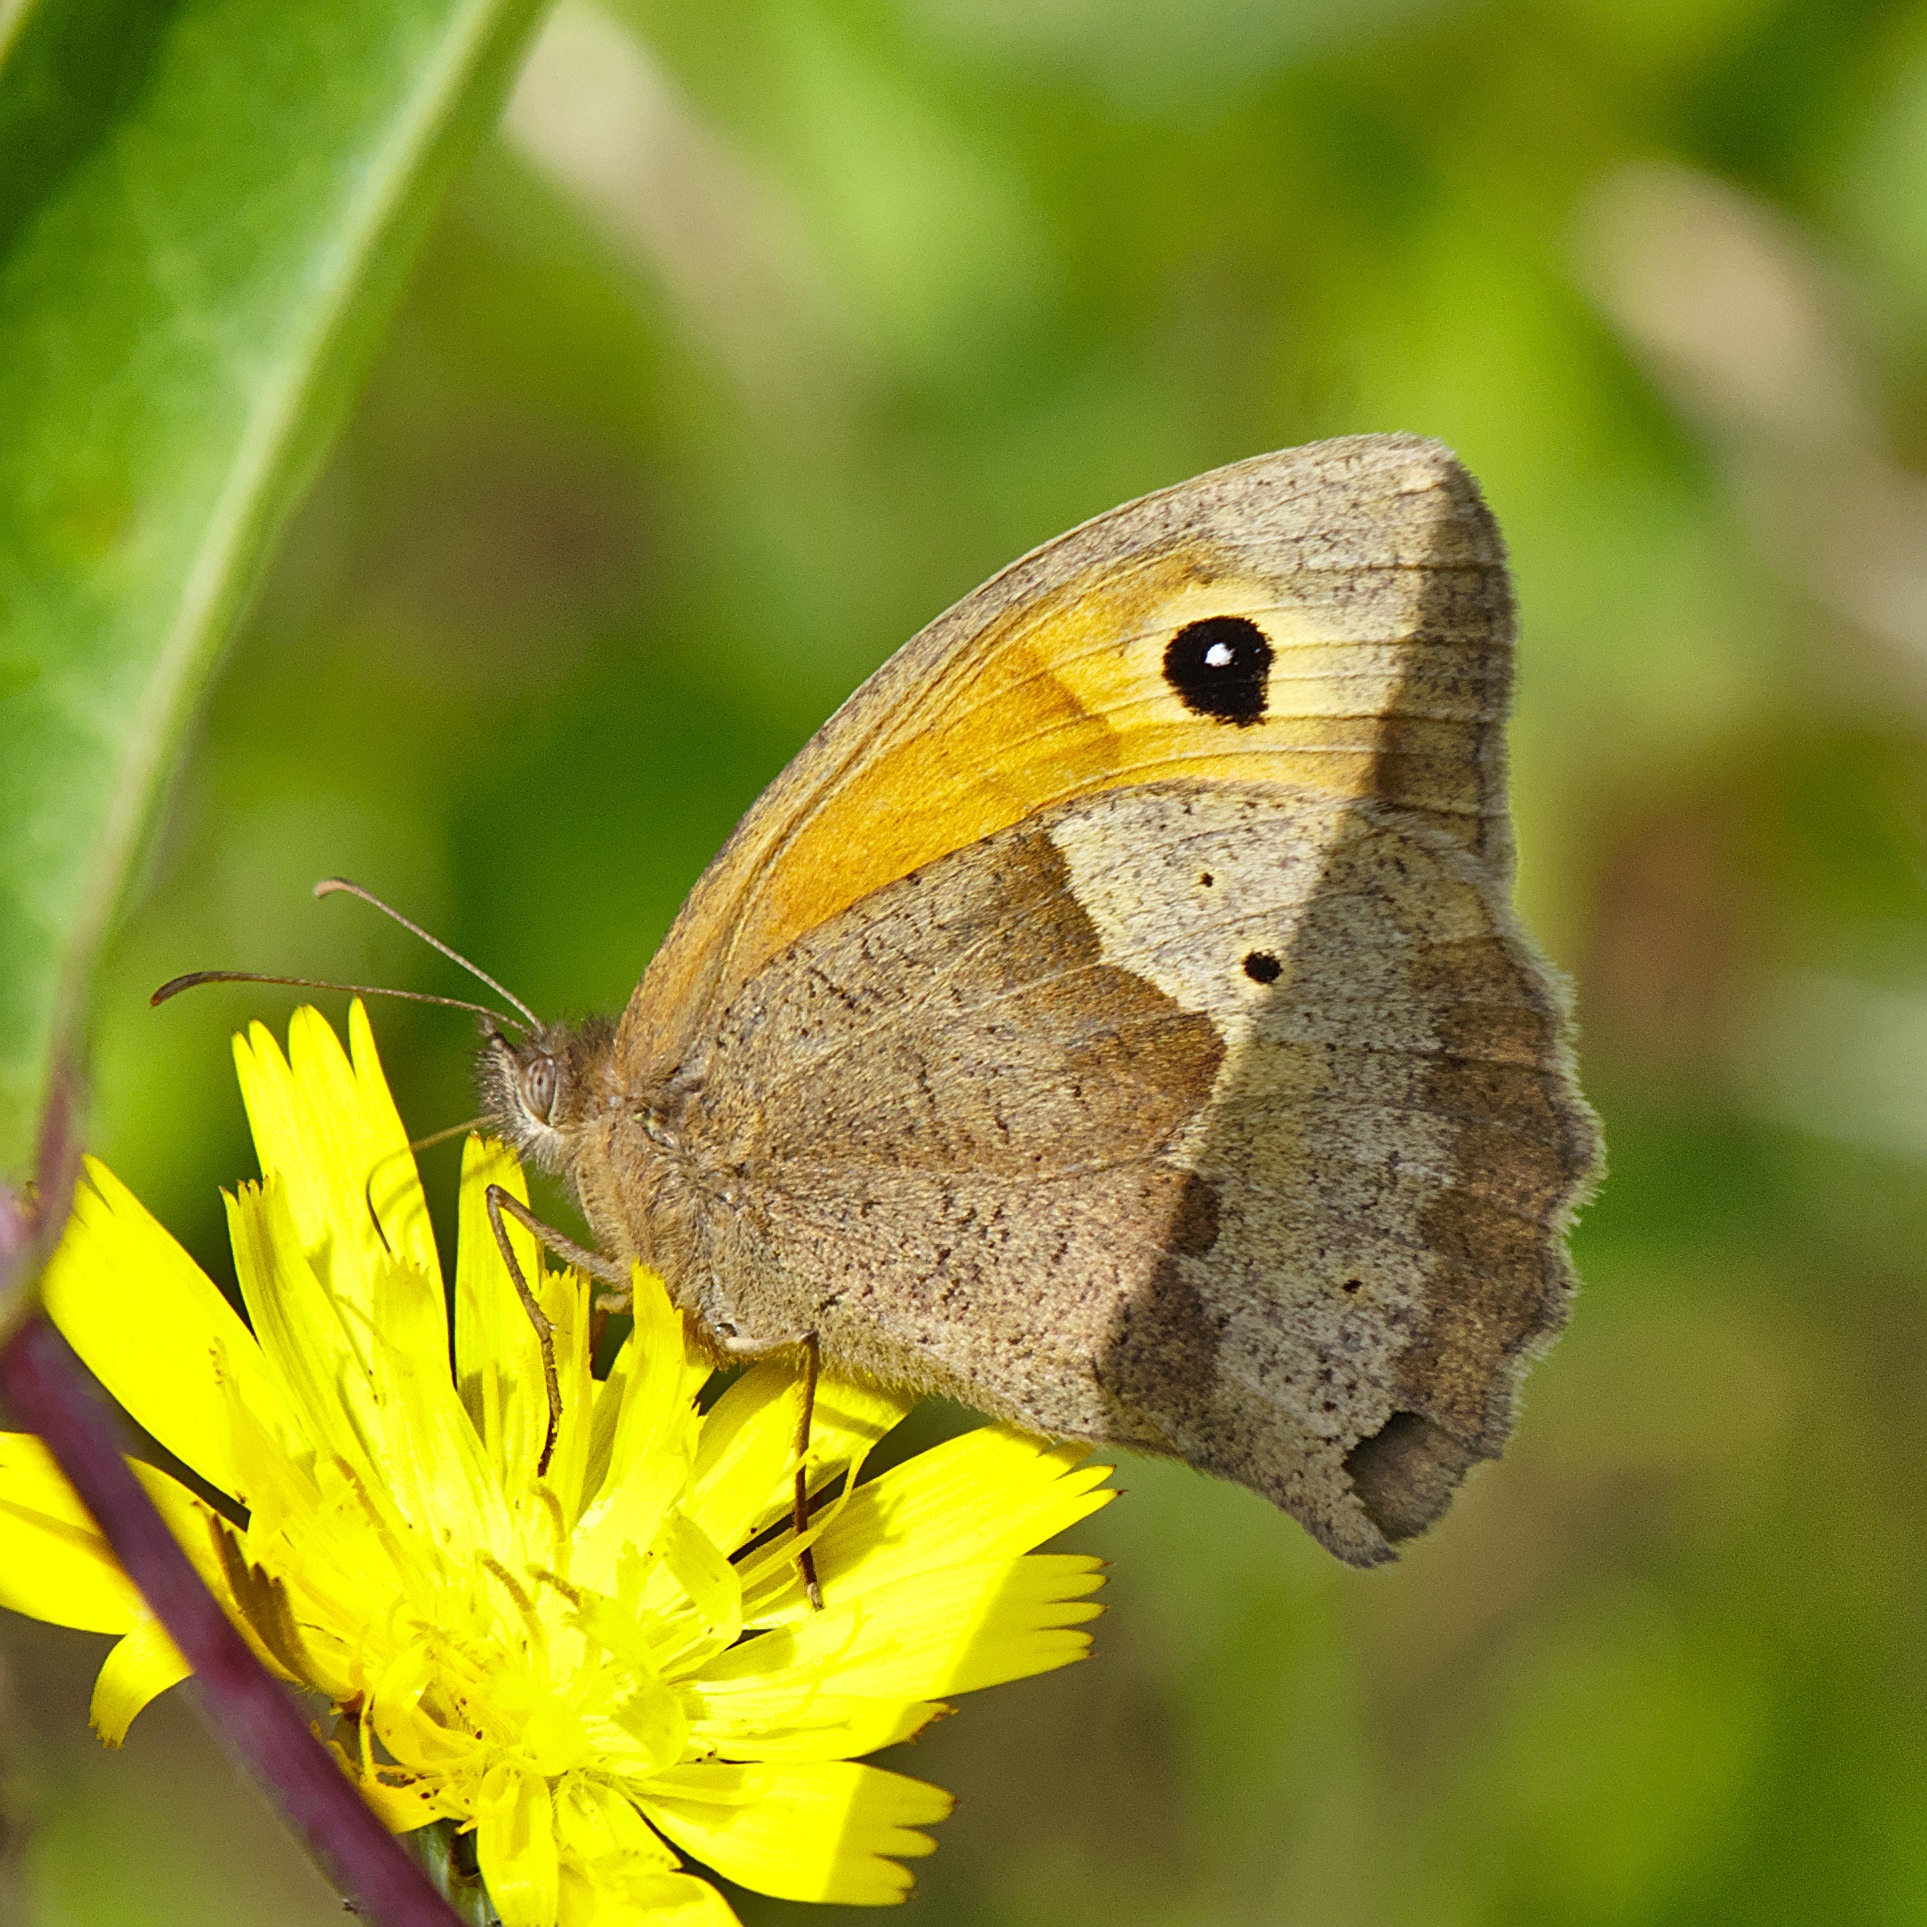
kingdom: Animalia
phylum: Arthropoda
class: Insecta
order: Lepidoptera
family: Nymphalidae
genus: Maniola
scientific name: Maniola jurtina
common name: Græsrandøje
